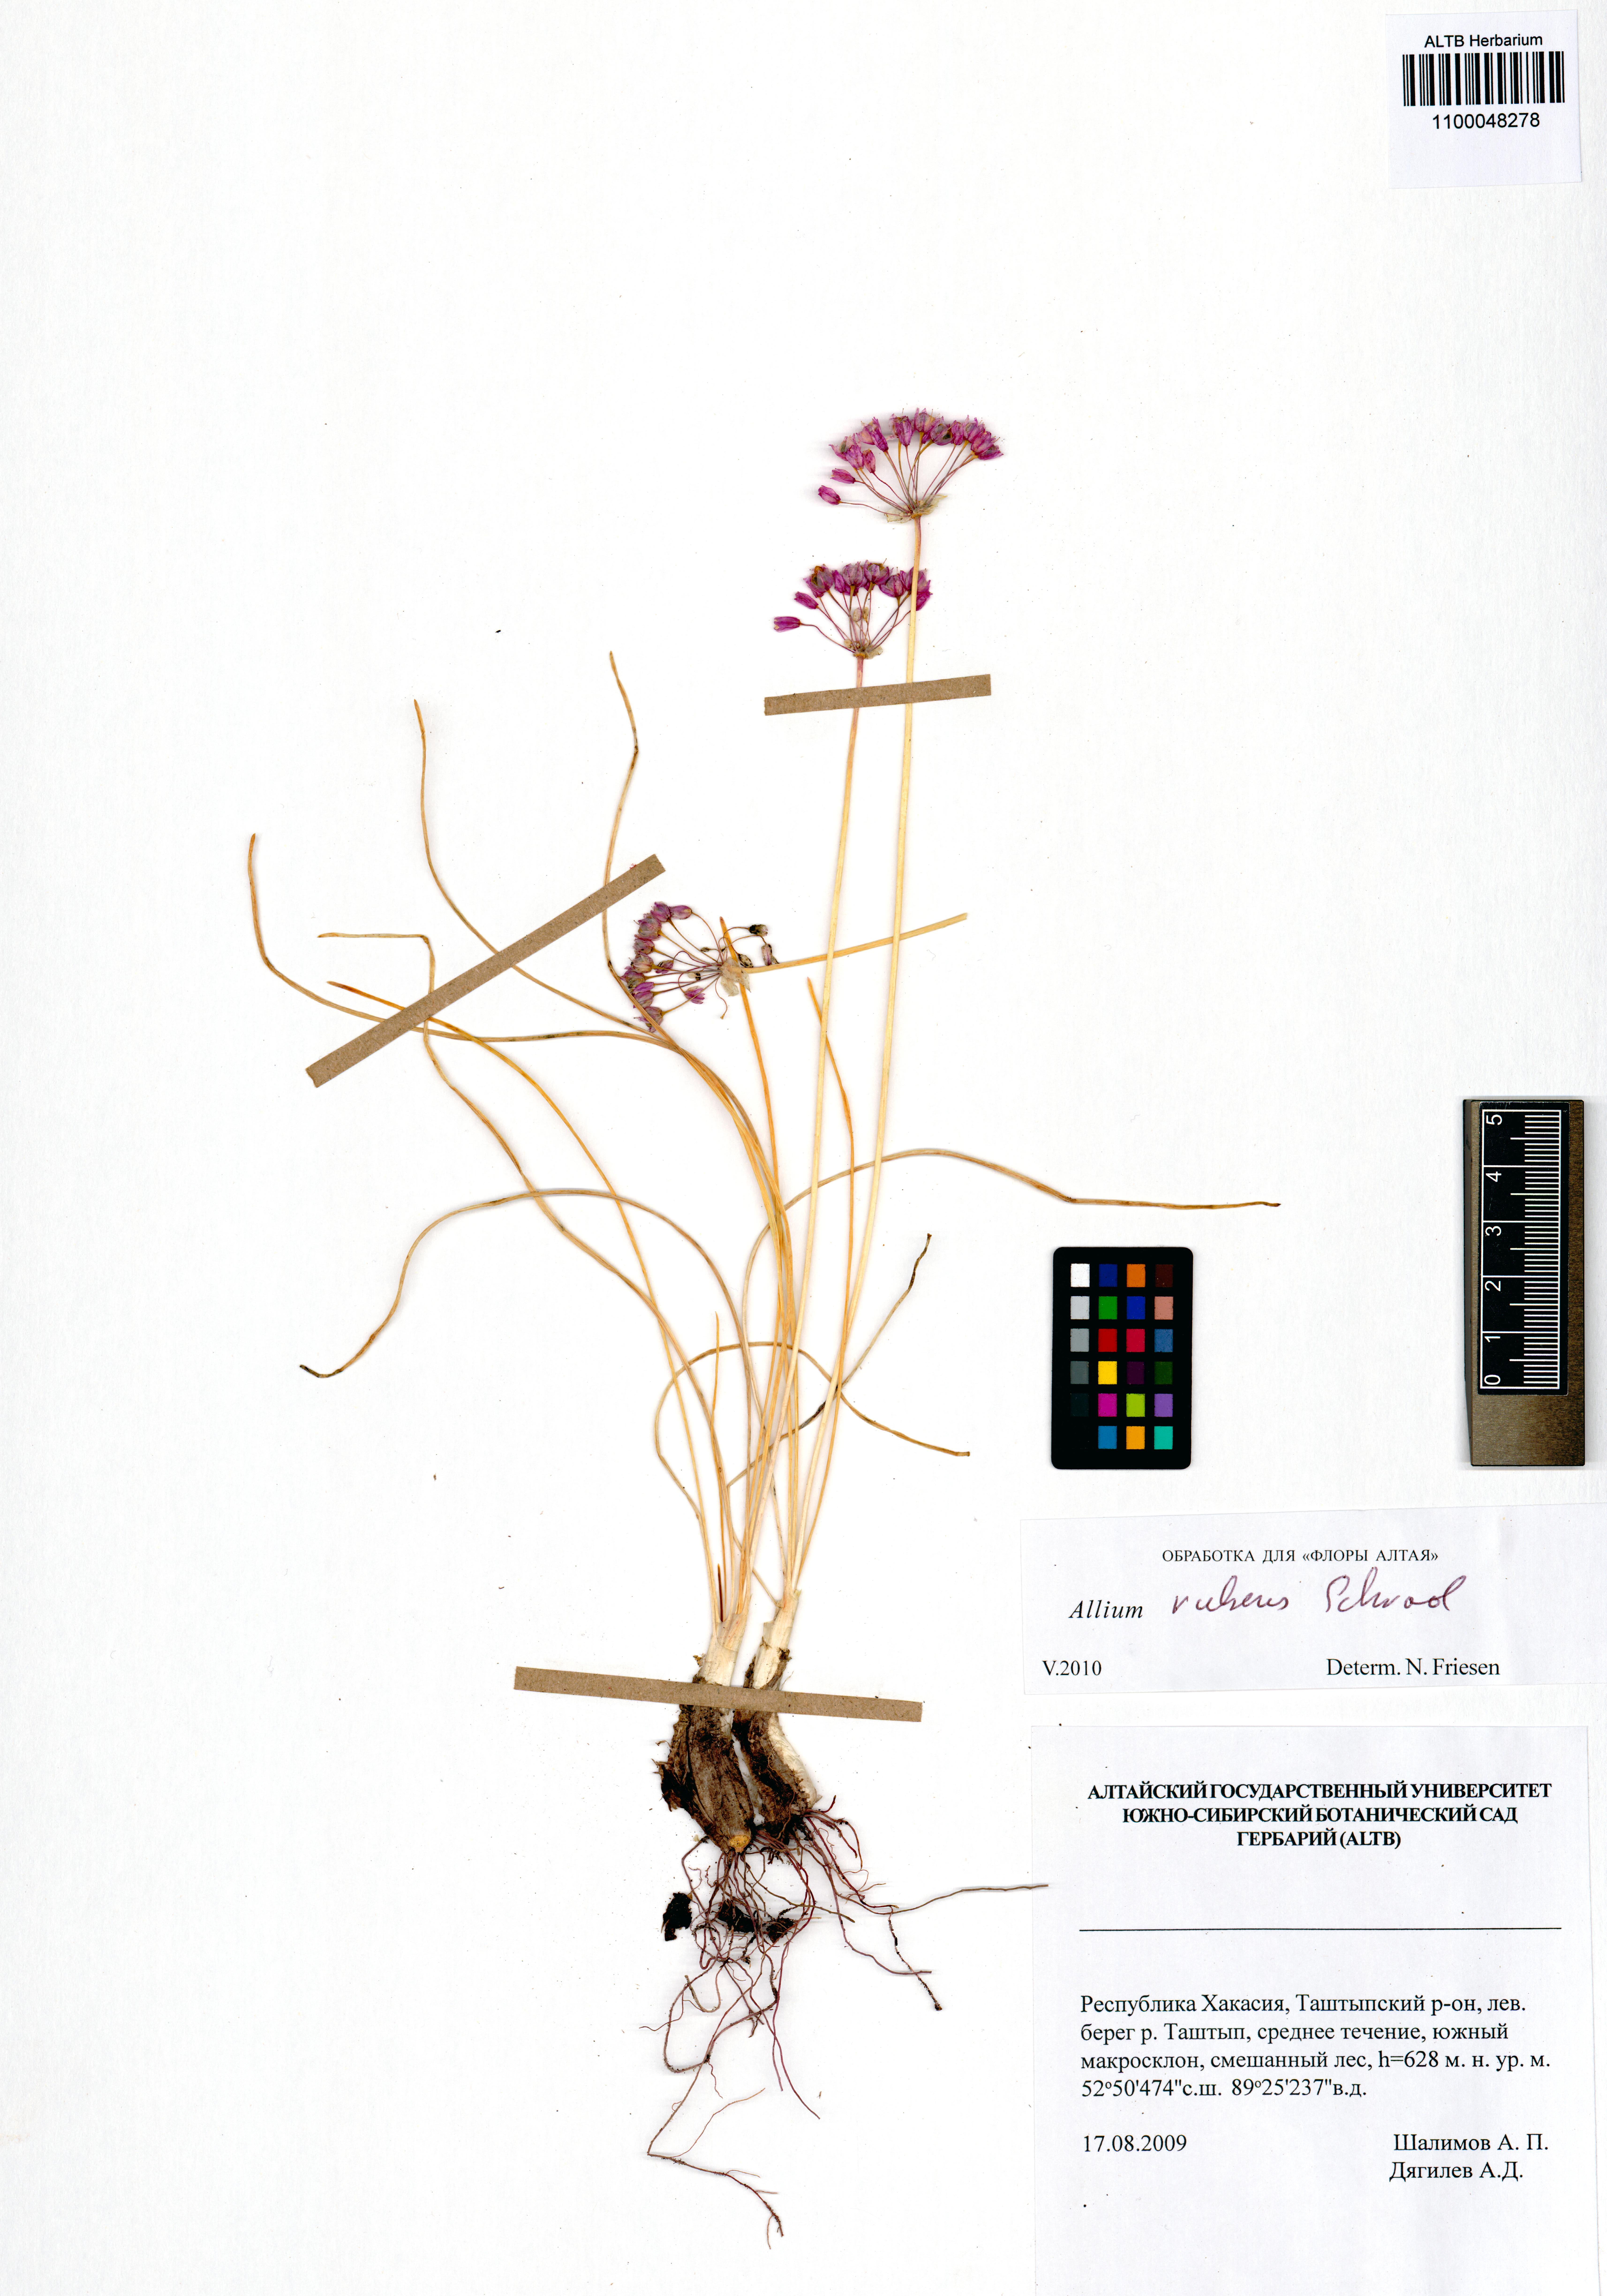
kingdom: Plantae
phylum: Tracheophyta
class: Liliopsida
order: Asparagales
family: Amaryllidaceae
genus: Allium
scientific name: Allium rubens
